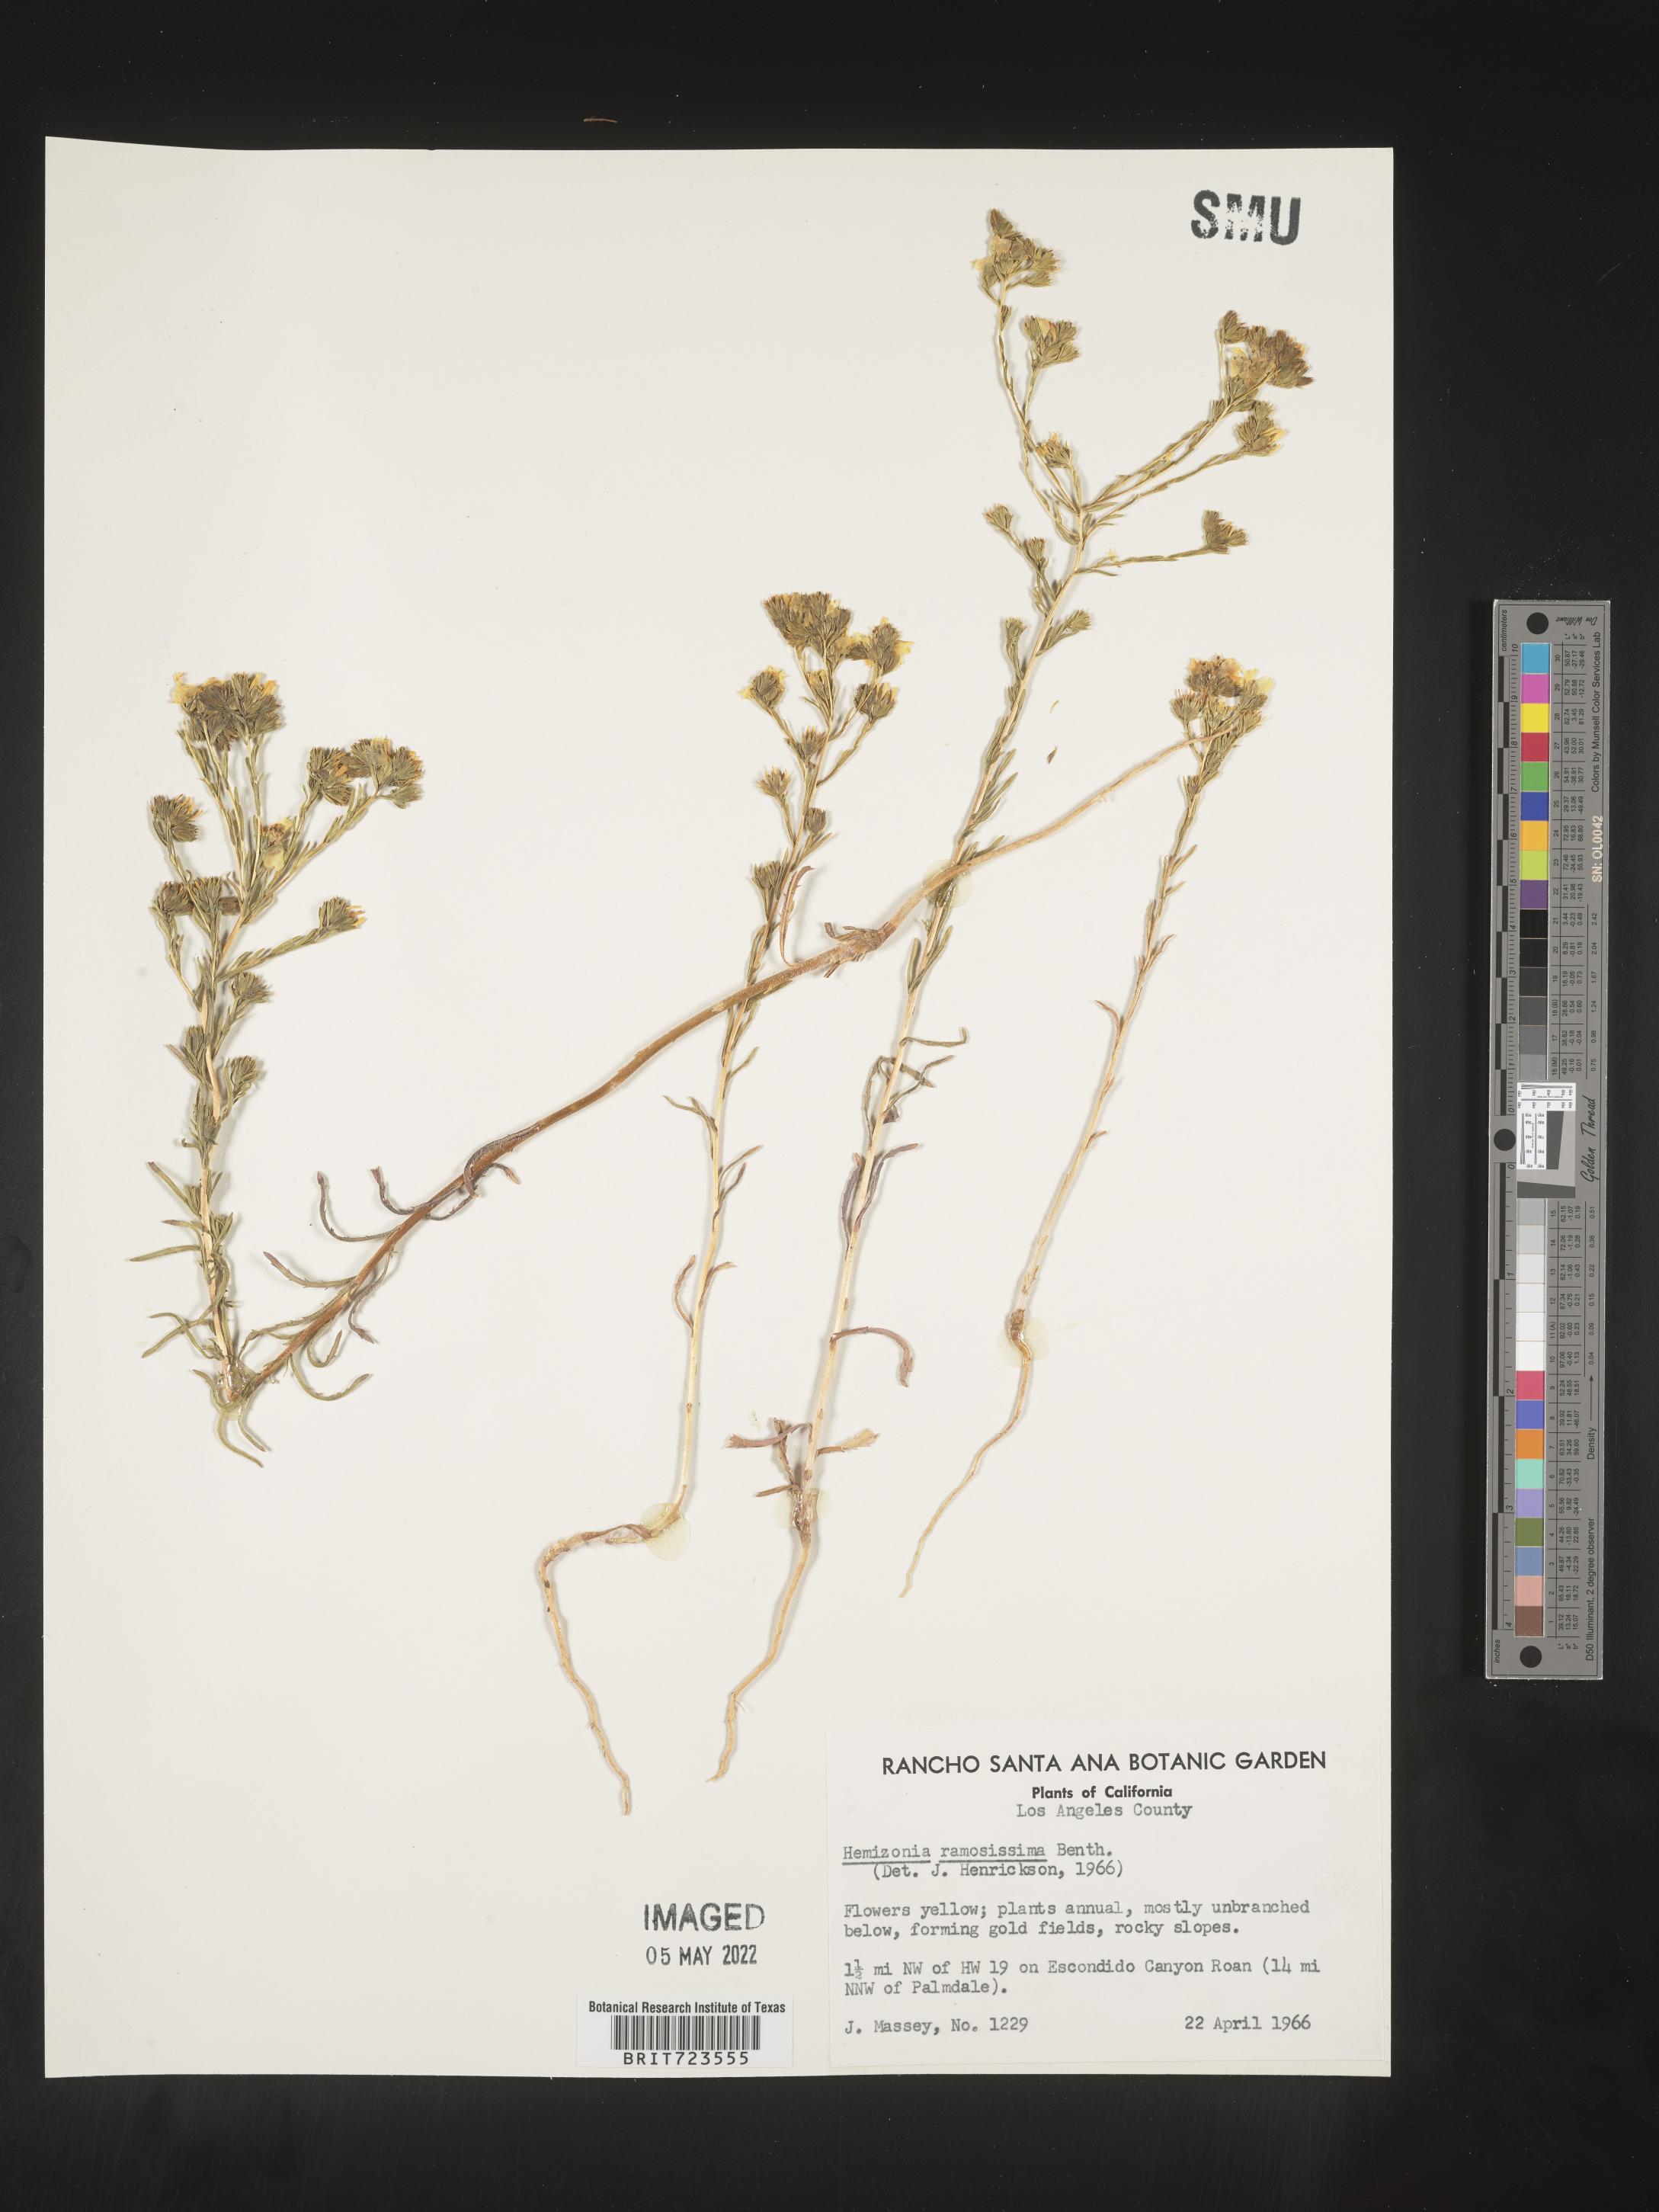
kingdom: Plantae
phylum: Tracheophyta
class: Magnoliopsida
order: Asterales
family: Asteraceae
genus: Hemizonia
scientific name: Hemizonia
